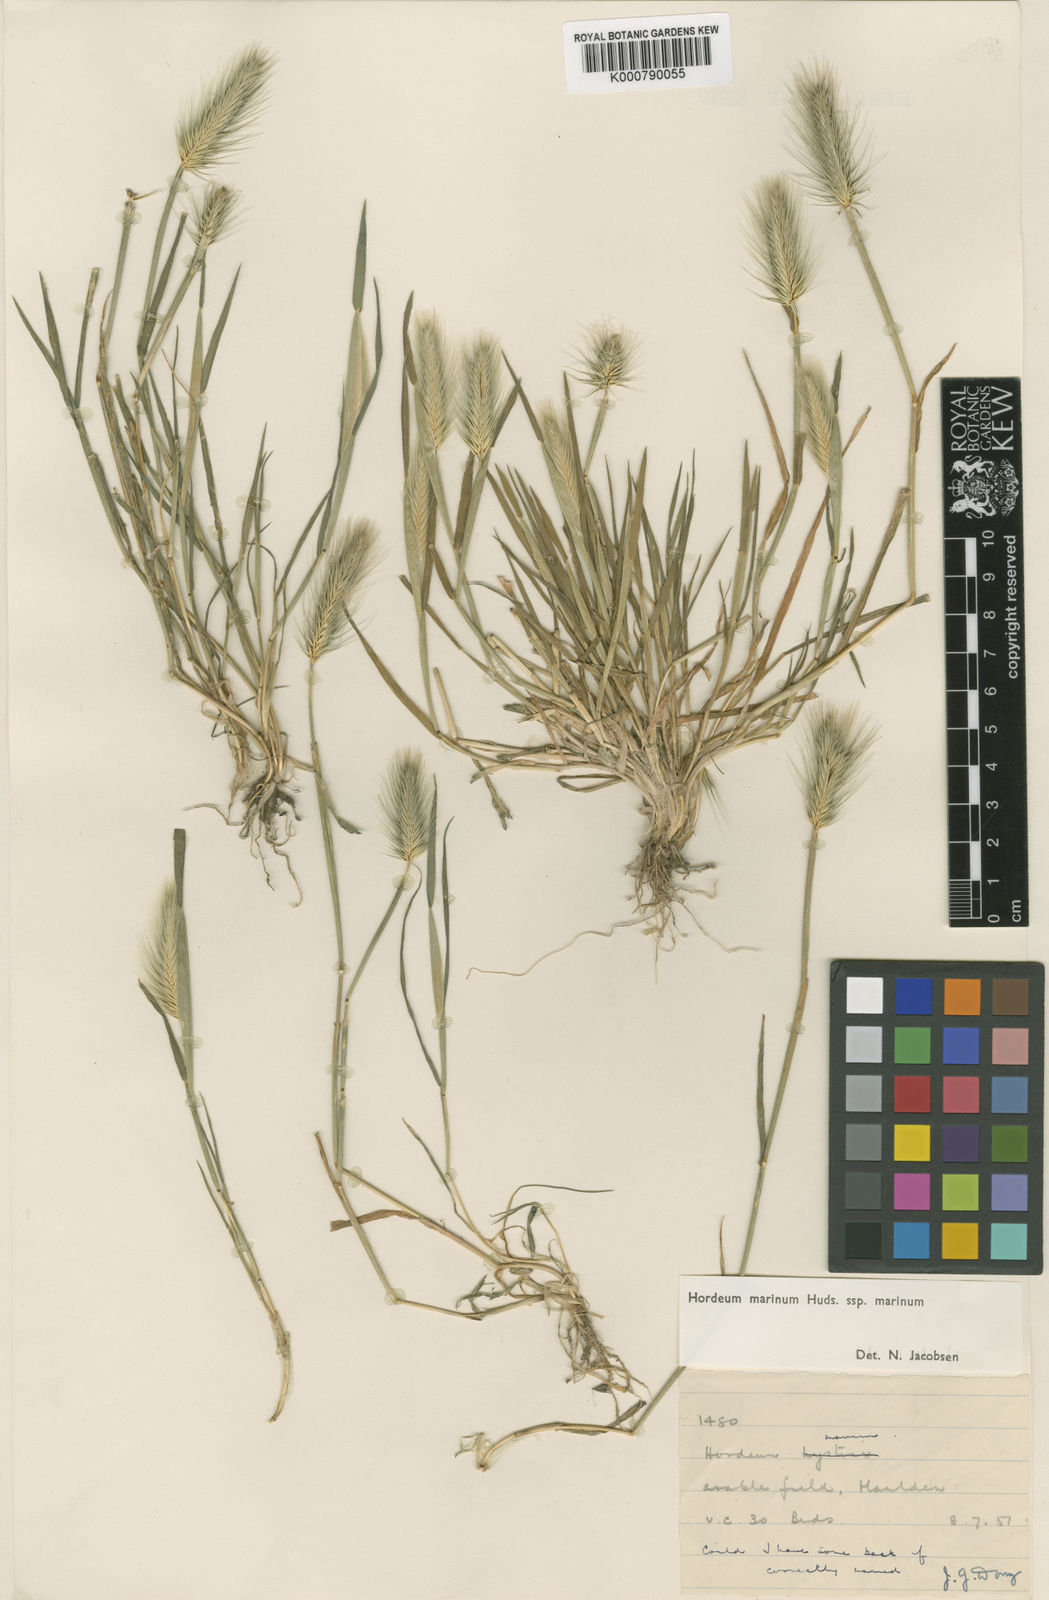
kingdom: Plantae
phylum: Tracheophyta
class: Liliopsida
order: Poales
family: Poaceae
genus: Hordeum
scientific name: Hordeum marinum
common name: Sea barley
